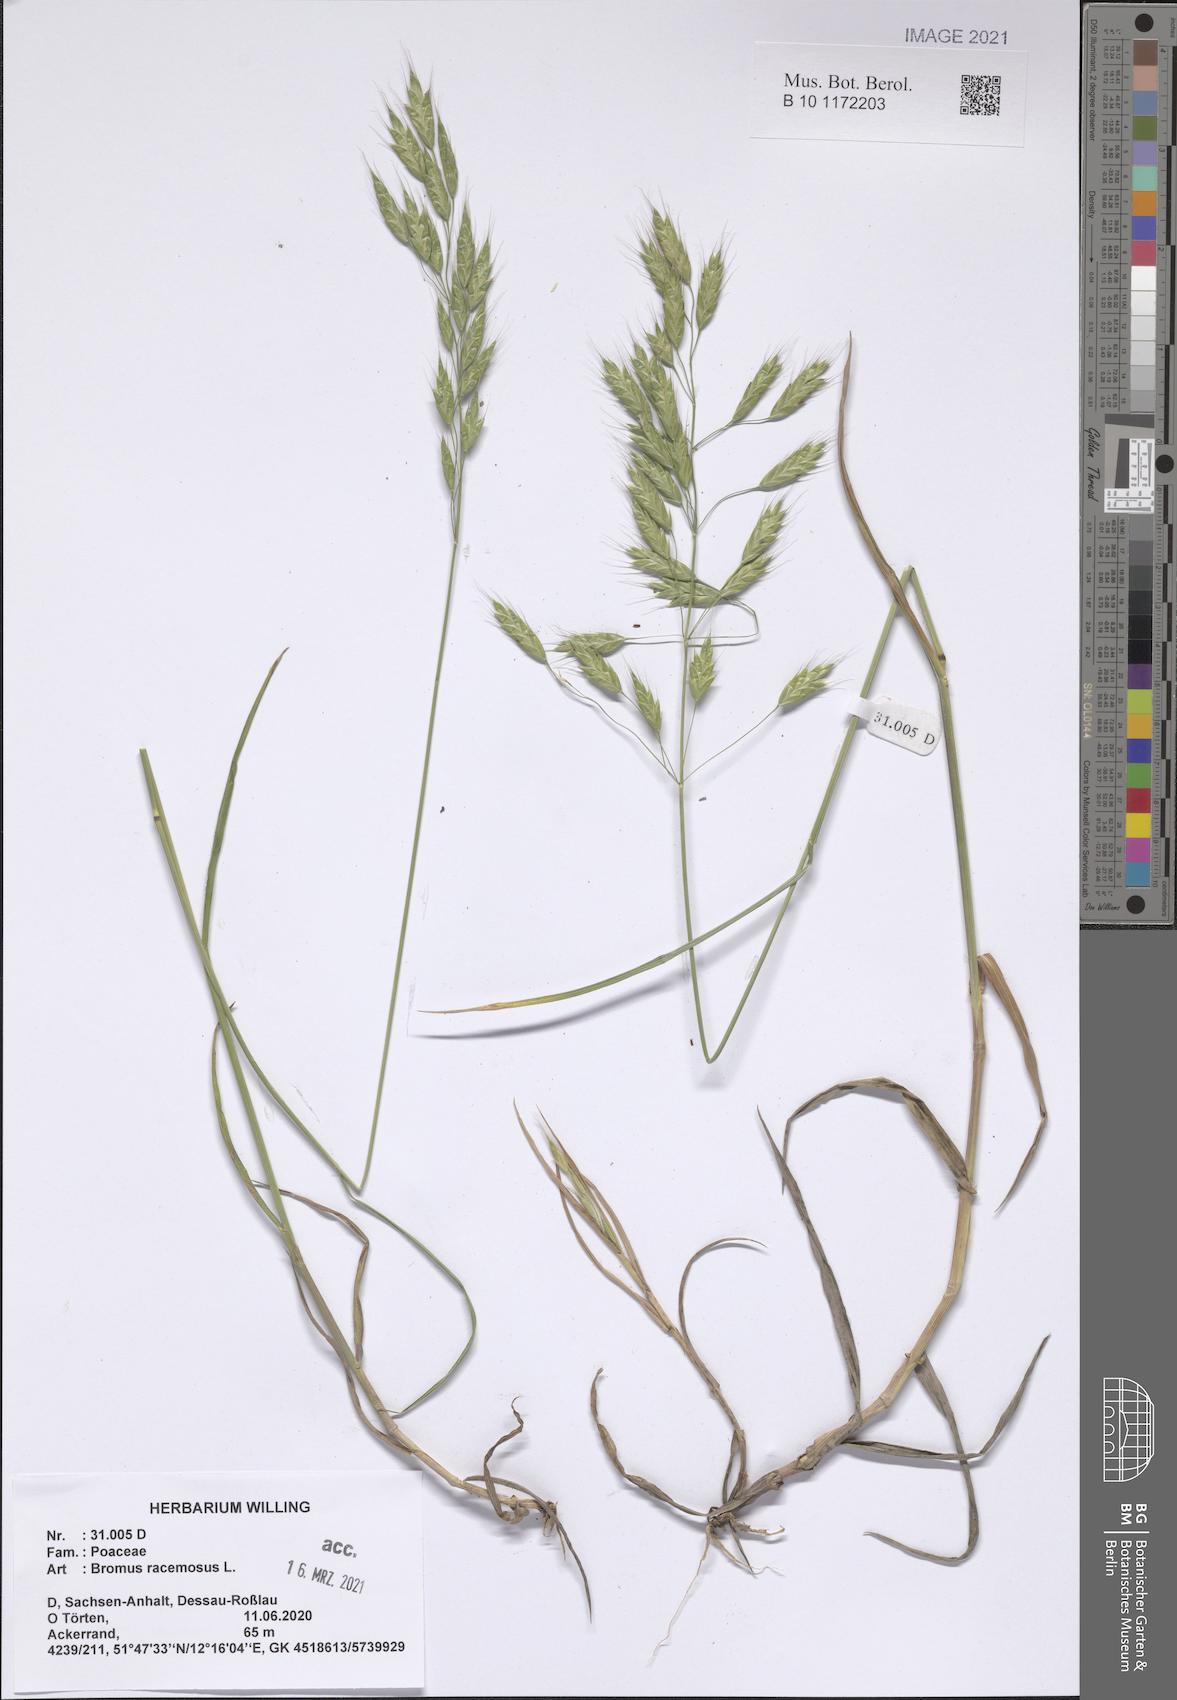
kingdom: Plantae
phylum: Tracheophyta
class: Liliopsida
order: Poales
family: Poaceae
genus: Bromus
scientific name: Bromus racemosus
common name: Bald brome
